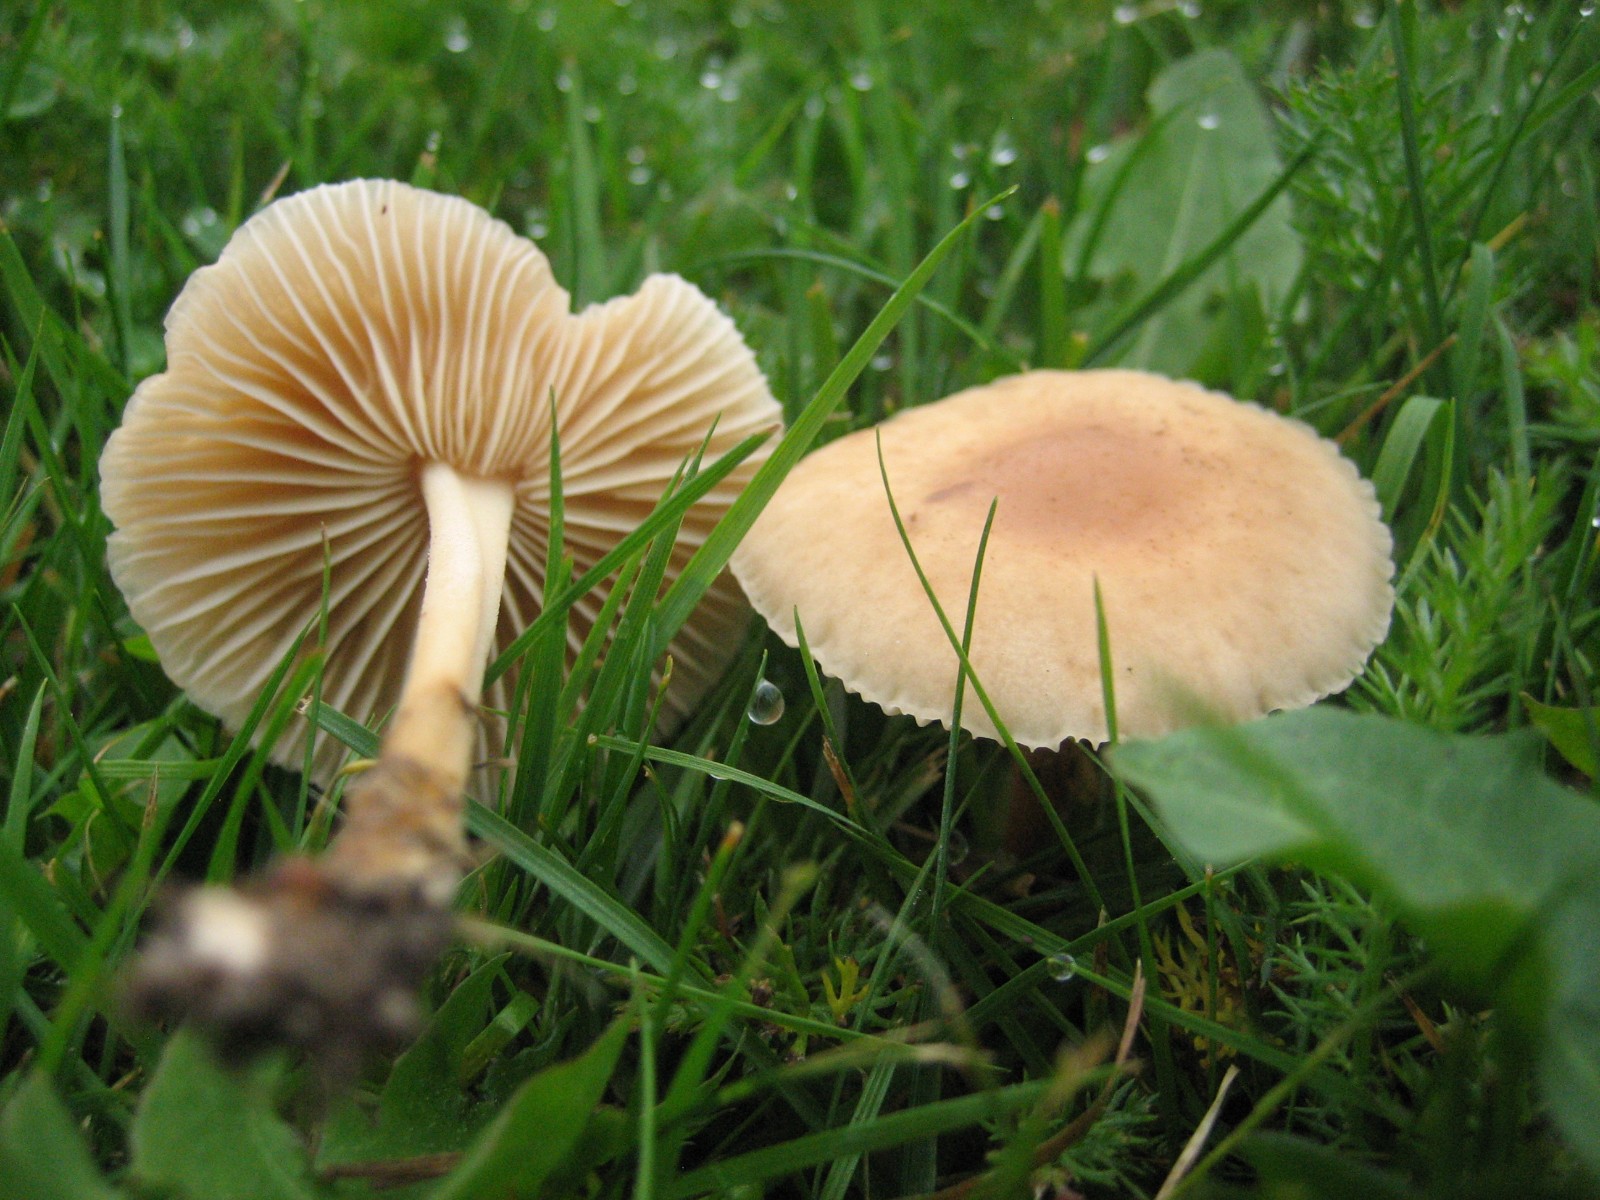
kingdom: Fungi
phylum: Basidiomycota
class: Agaricomycetes
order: Agaricales
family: Marasmiaceae
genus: Marasmius
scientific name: Marasmius oreades
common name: elledans-bruskhat
